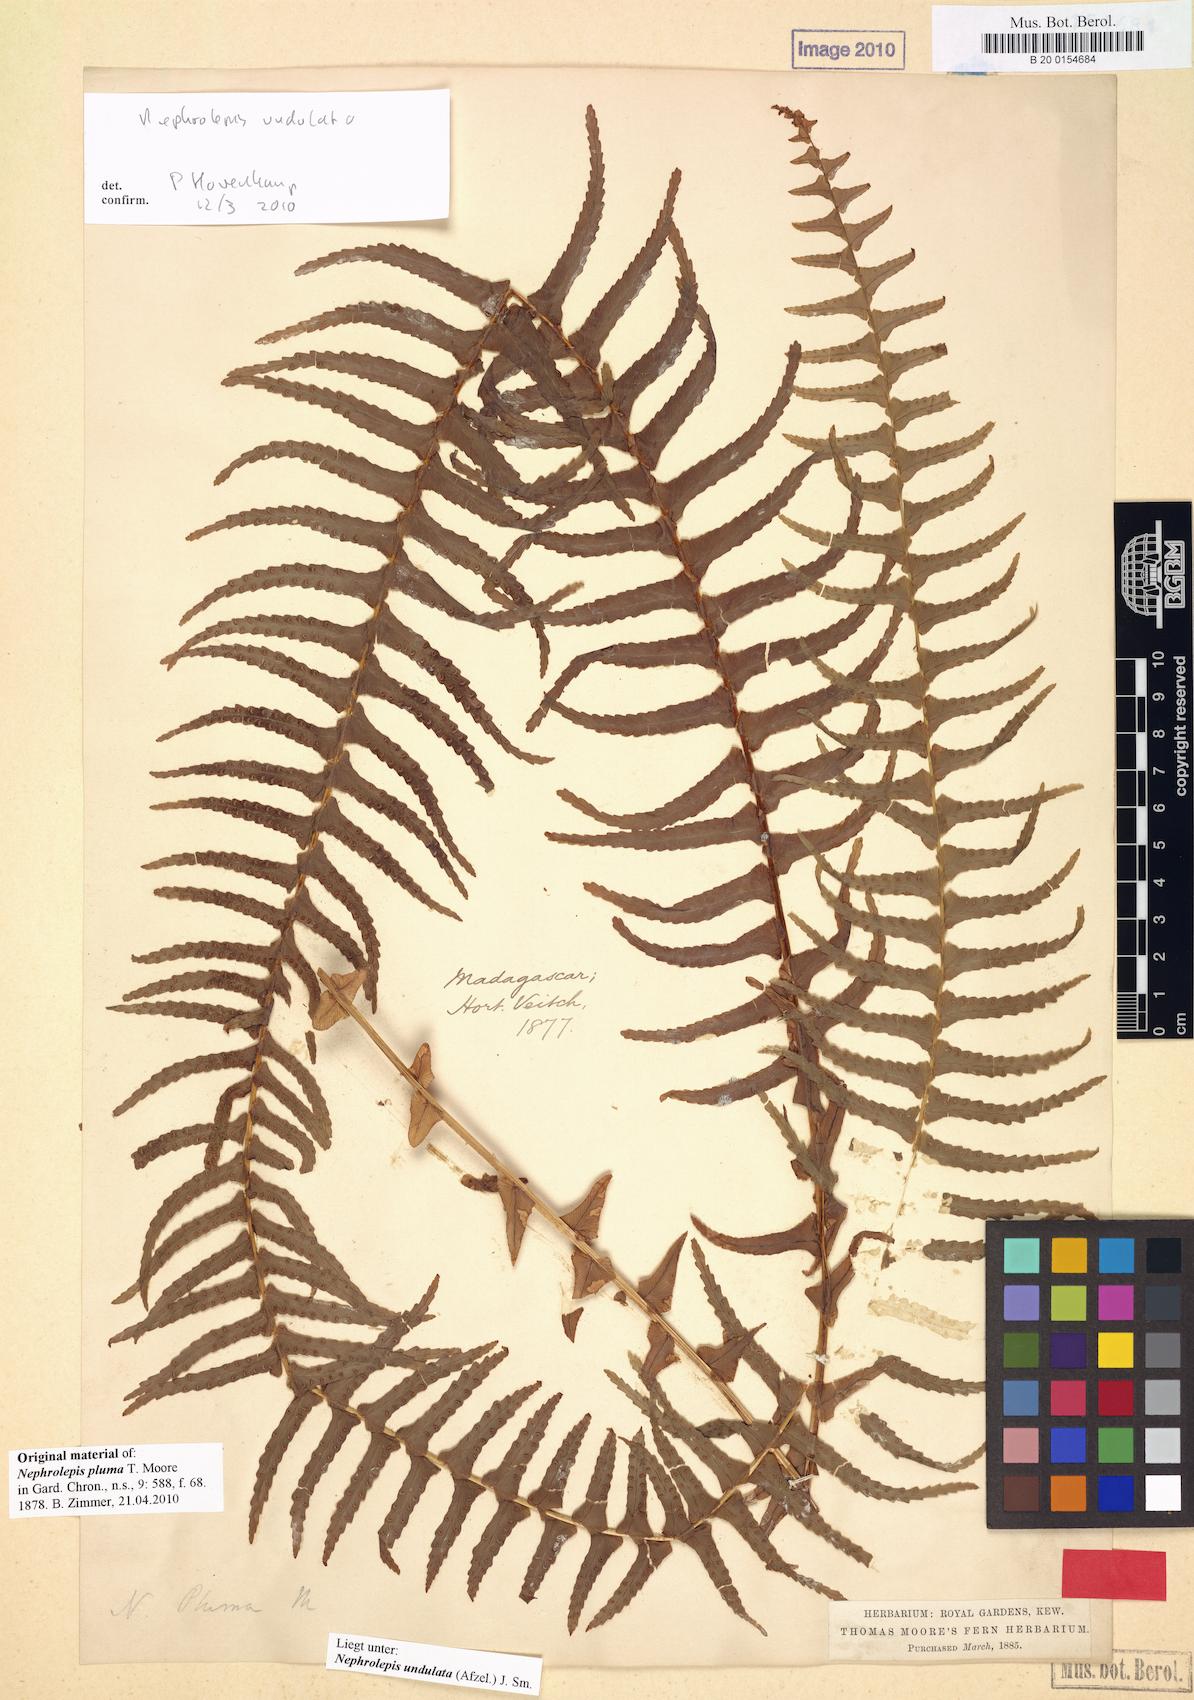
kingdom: Plantae
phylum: Tracheophyta
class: Polypodiopsida
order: Polypodiales
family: Nephrolepidaceae
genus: Nephrolepis
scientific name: Nephrolepis undulata
